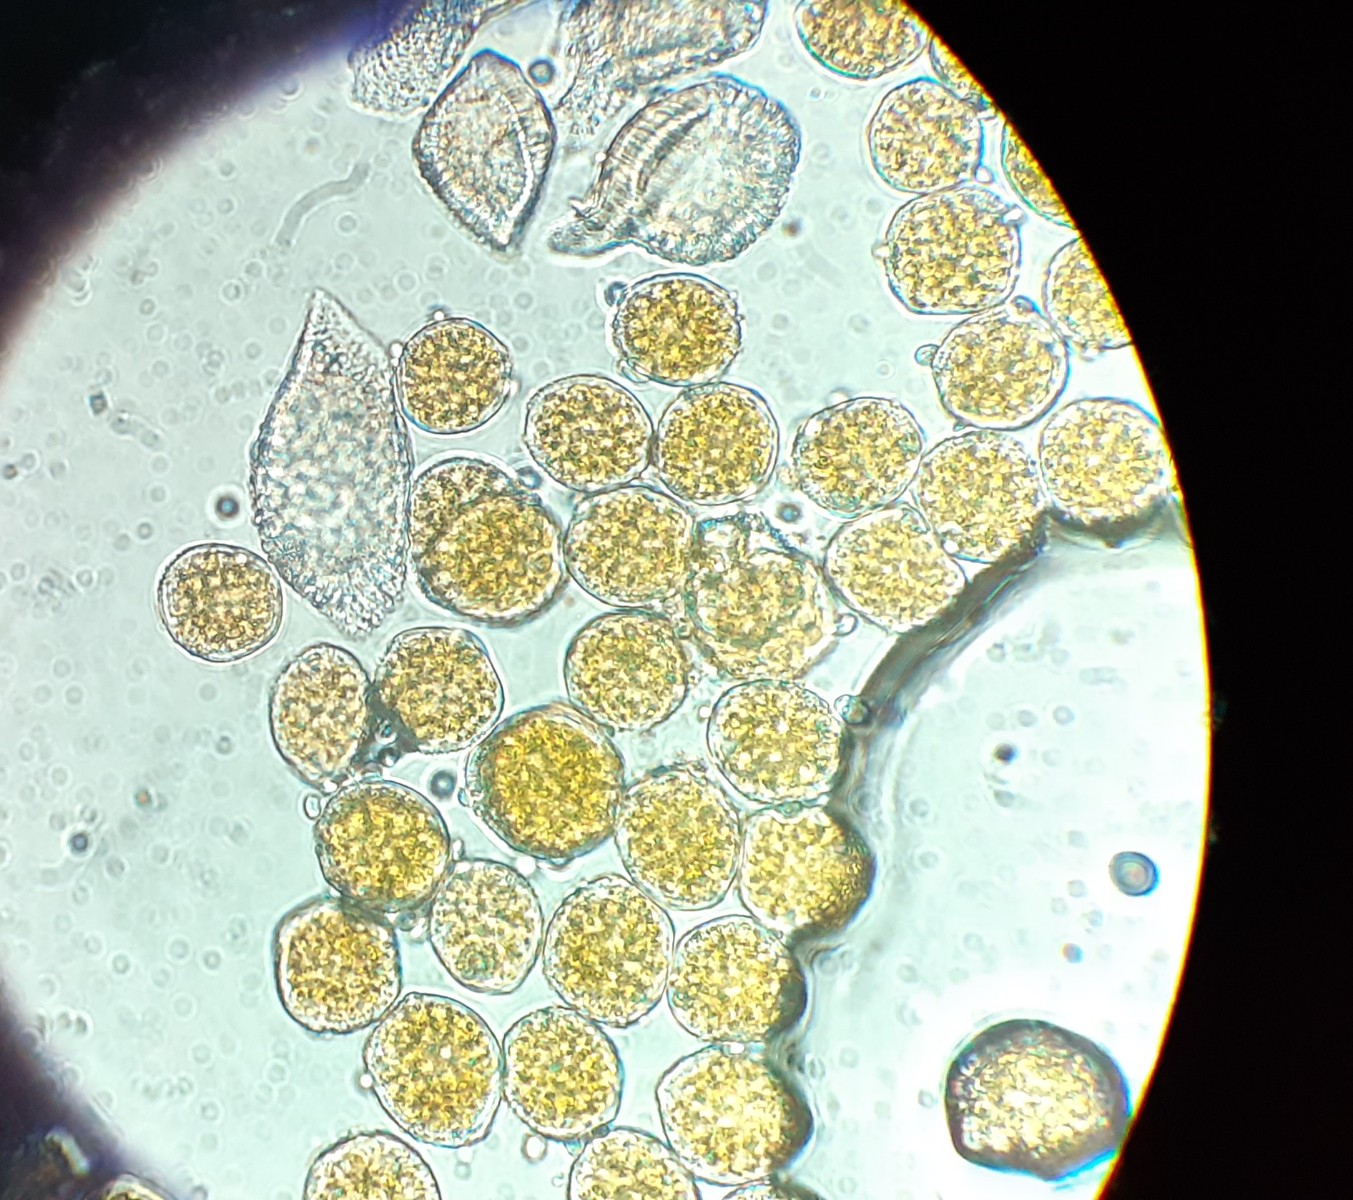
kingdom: Fungi
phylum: Basidiomycota
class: Pucciniomycetes
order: Pucciniales
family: Pucciniaceae
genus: Puccinia
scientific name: Puccinia obscura
